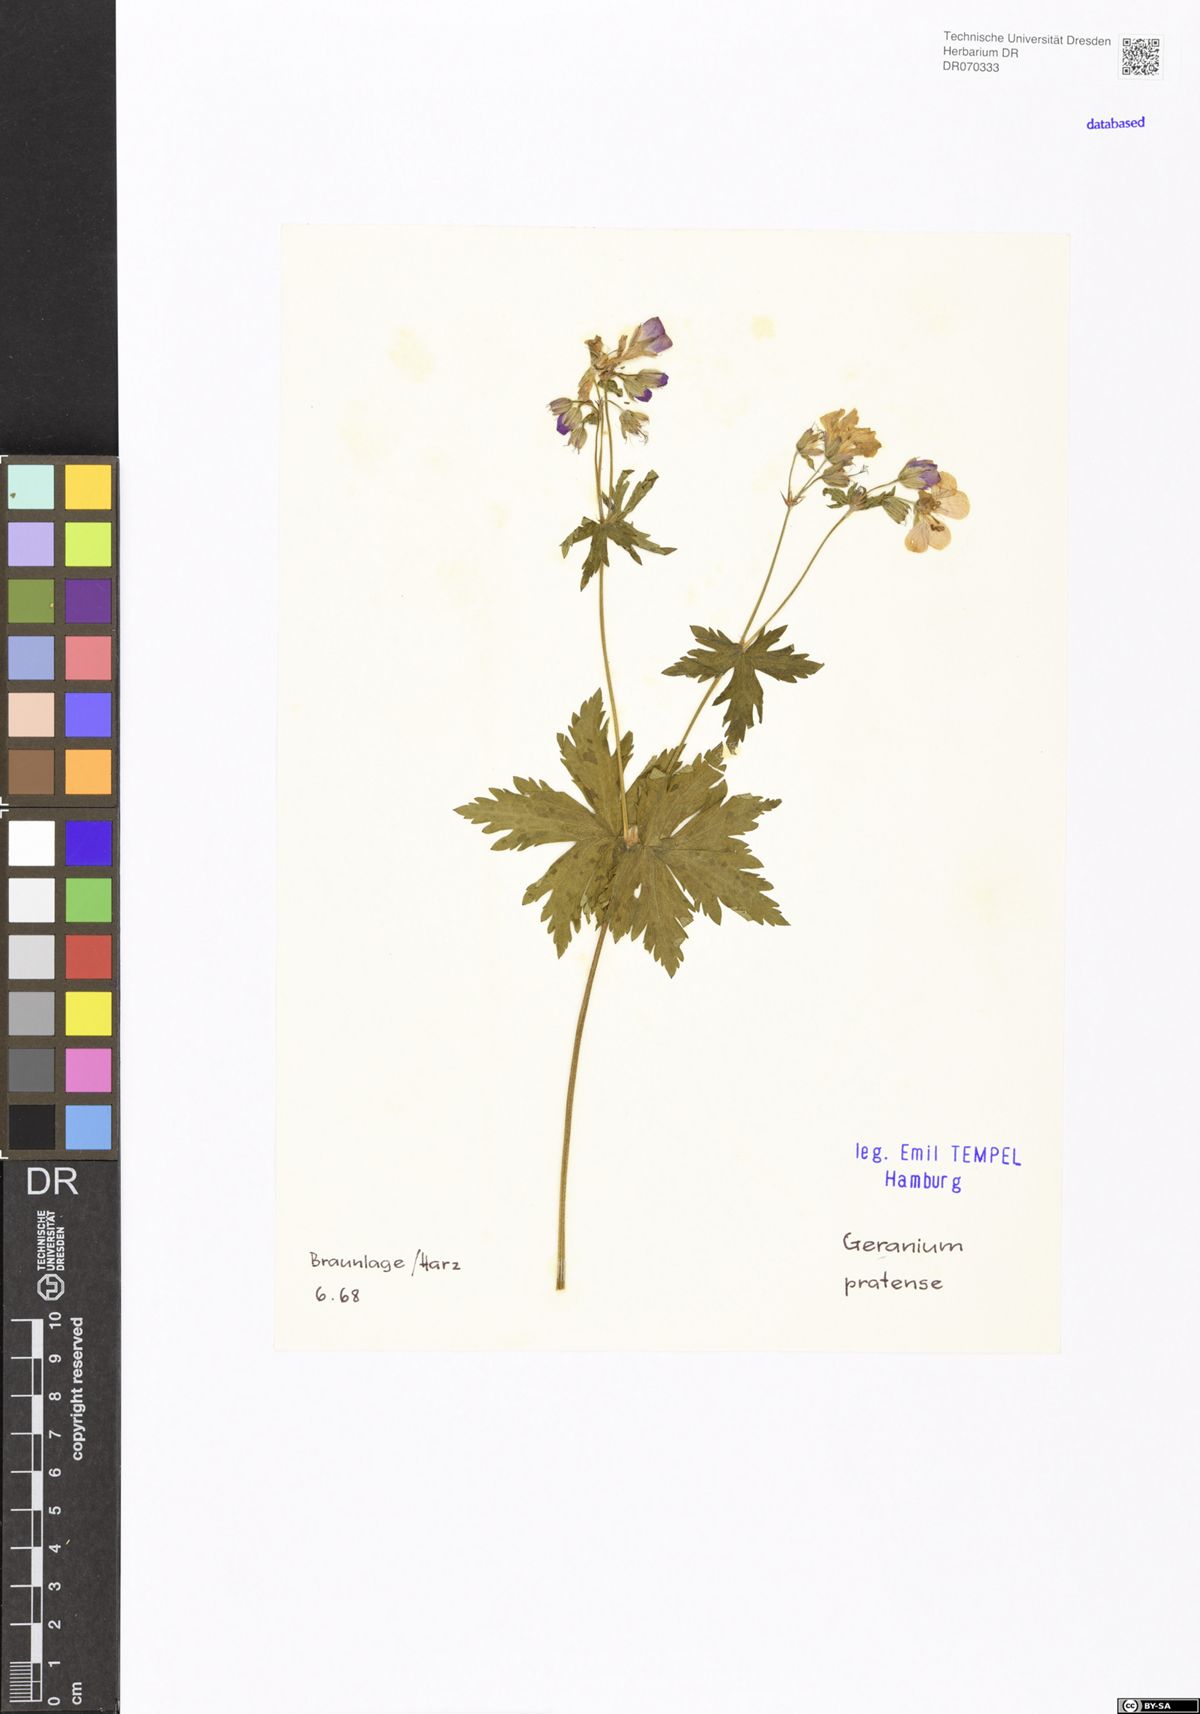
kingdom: Plantae
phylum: Tracheophyta
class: Magnoliopsida
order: Geraniales
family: Geraniaceae
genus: Geranium
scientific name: Geranium pratense
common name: Meadow crane's-bill
